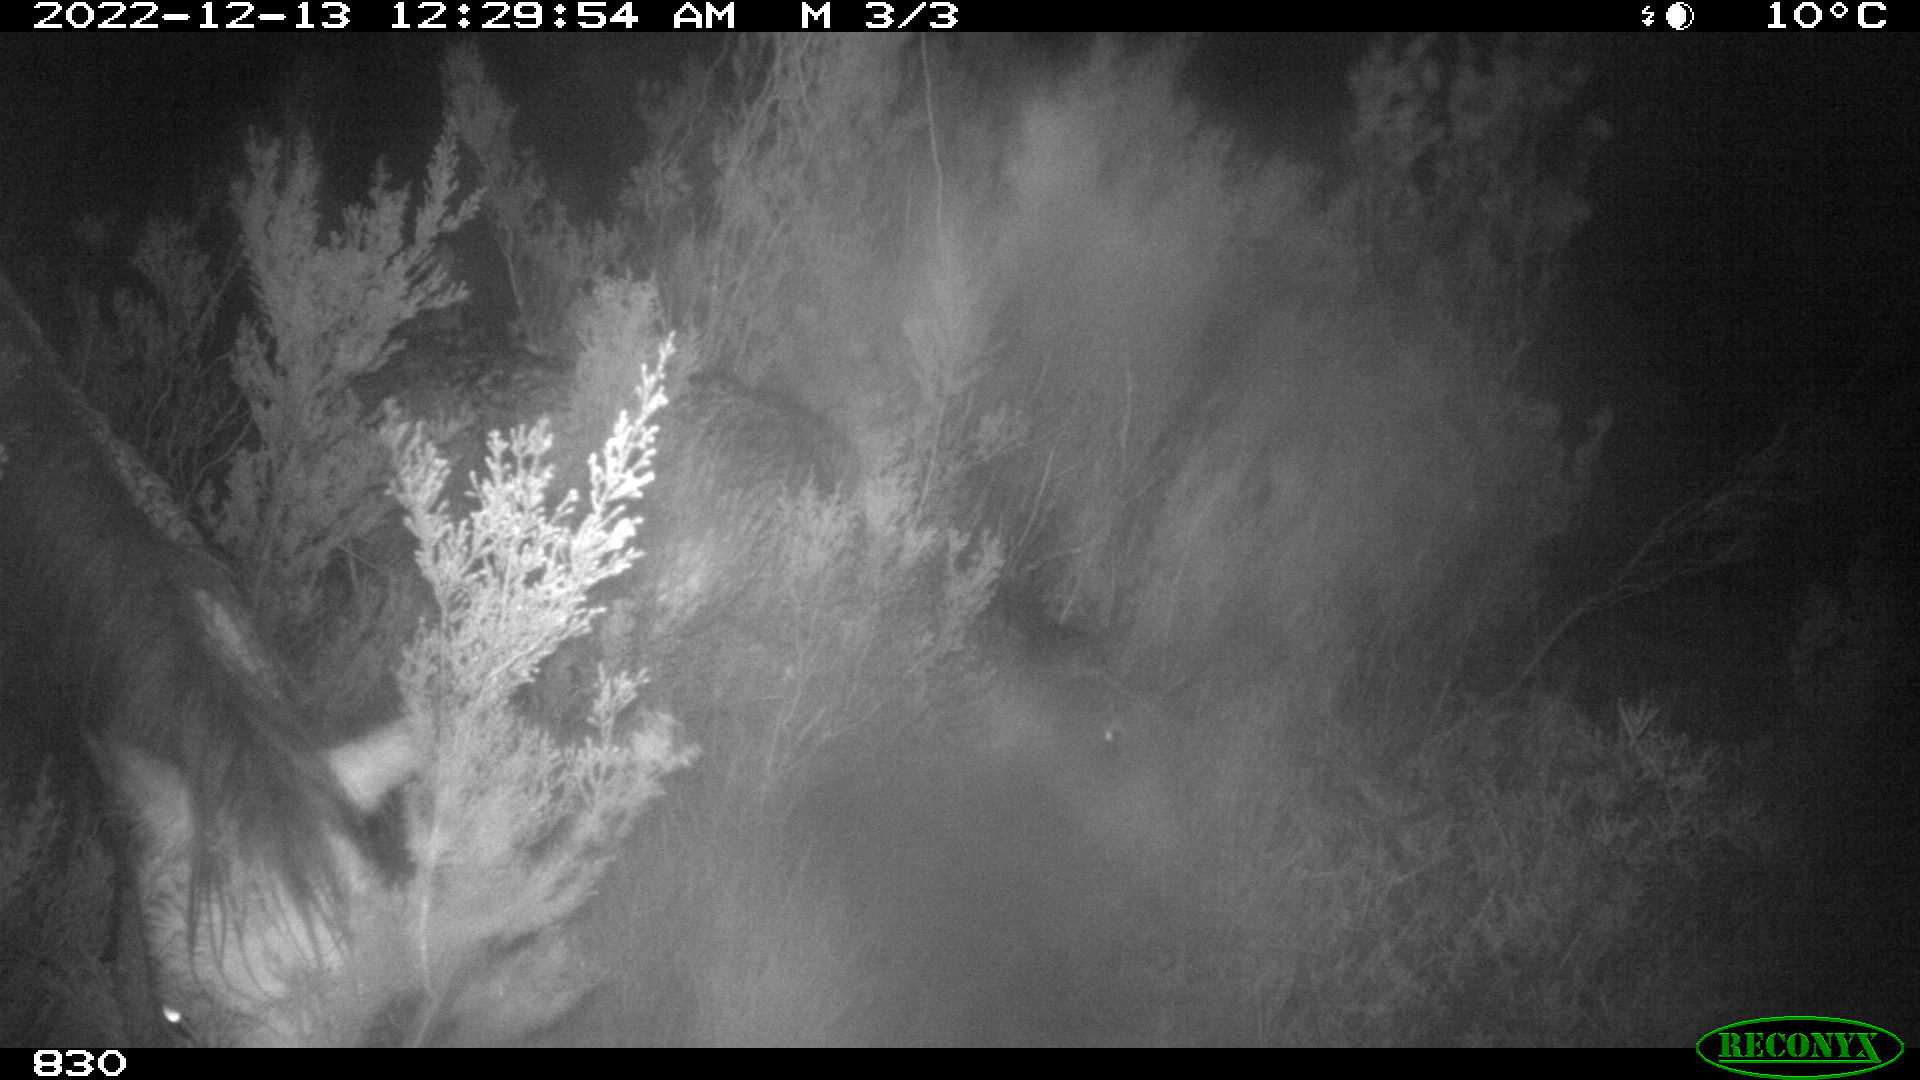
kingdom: Animalia
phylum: Chordata
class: Mammalia
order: Perissodactyla
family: Equidae
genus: Equus
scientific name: Equus caballus
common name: Horse
